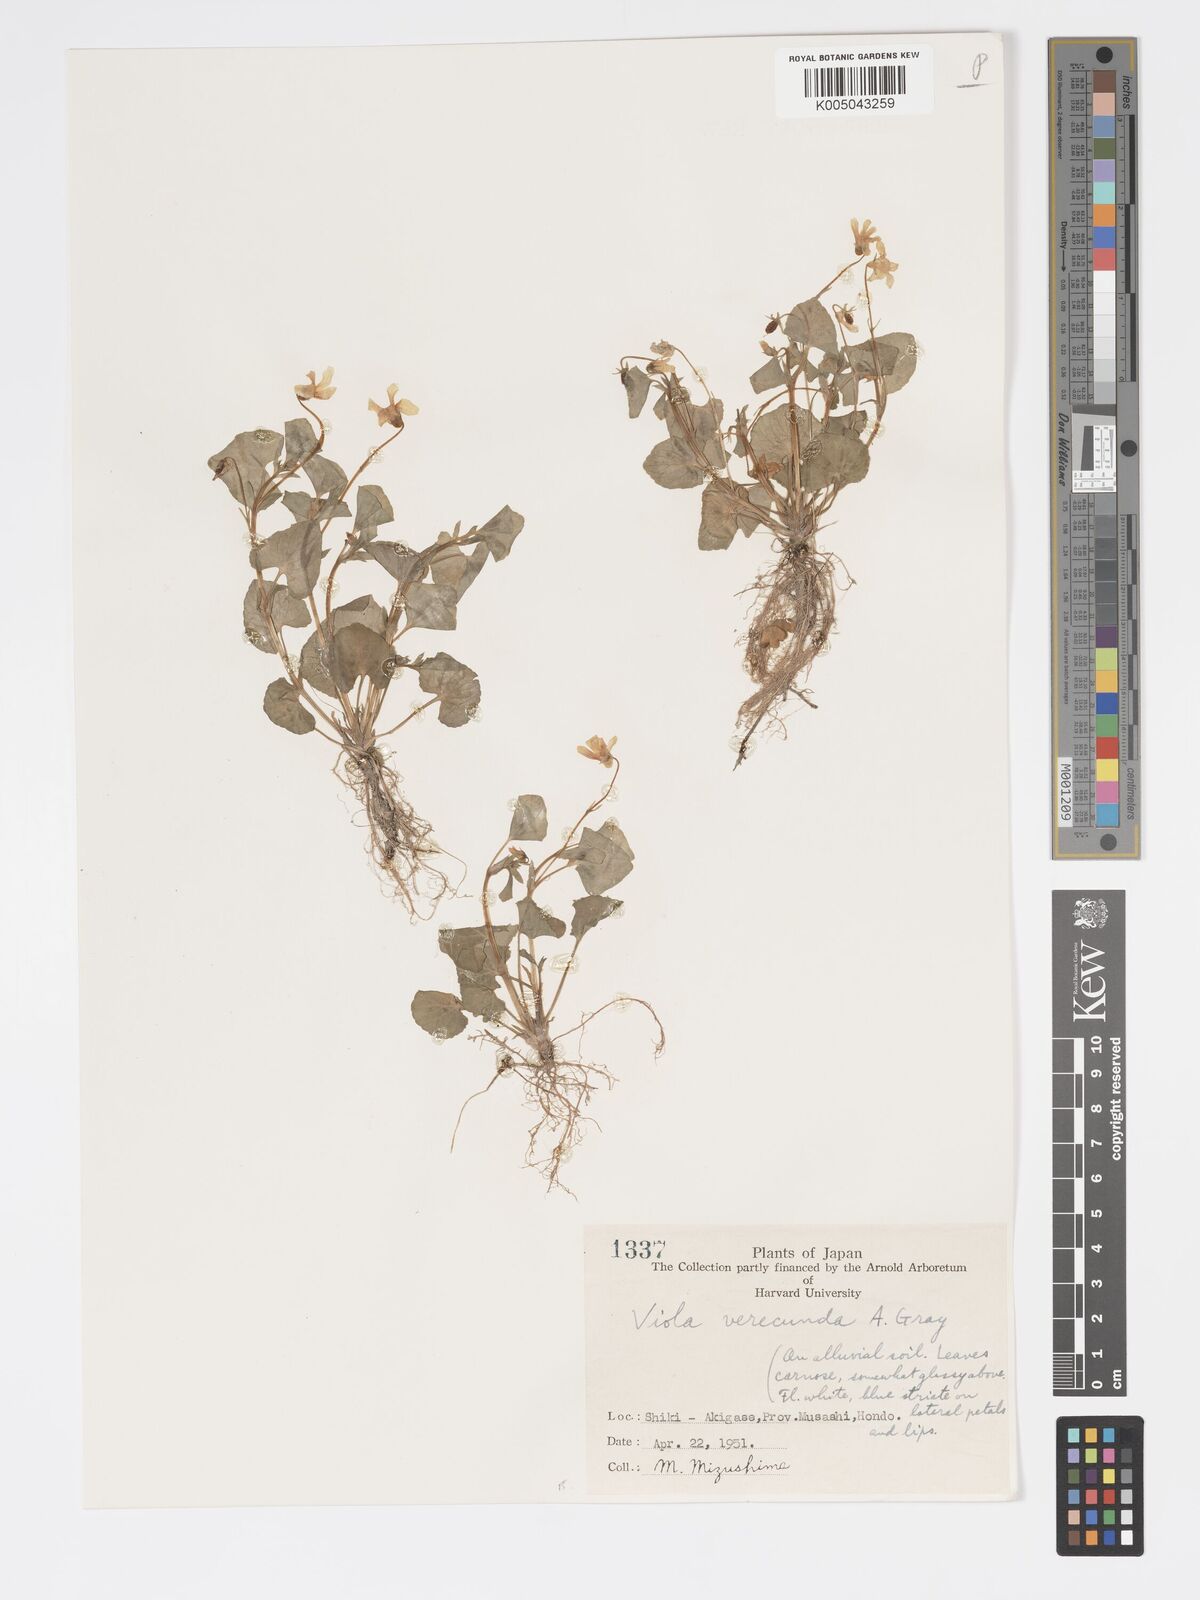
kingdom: Plantae
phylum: Tracheophyta
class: Magnoliopsida
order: Malpighiales
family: Violaceae
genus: Viola
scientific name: Viola hamiltoniana
